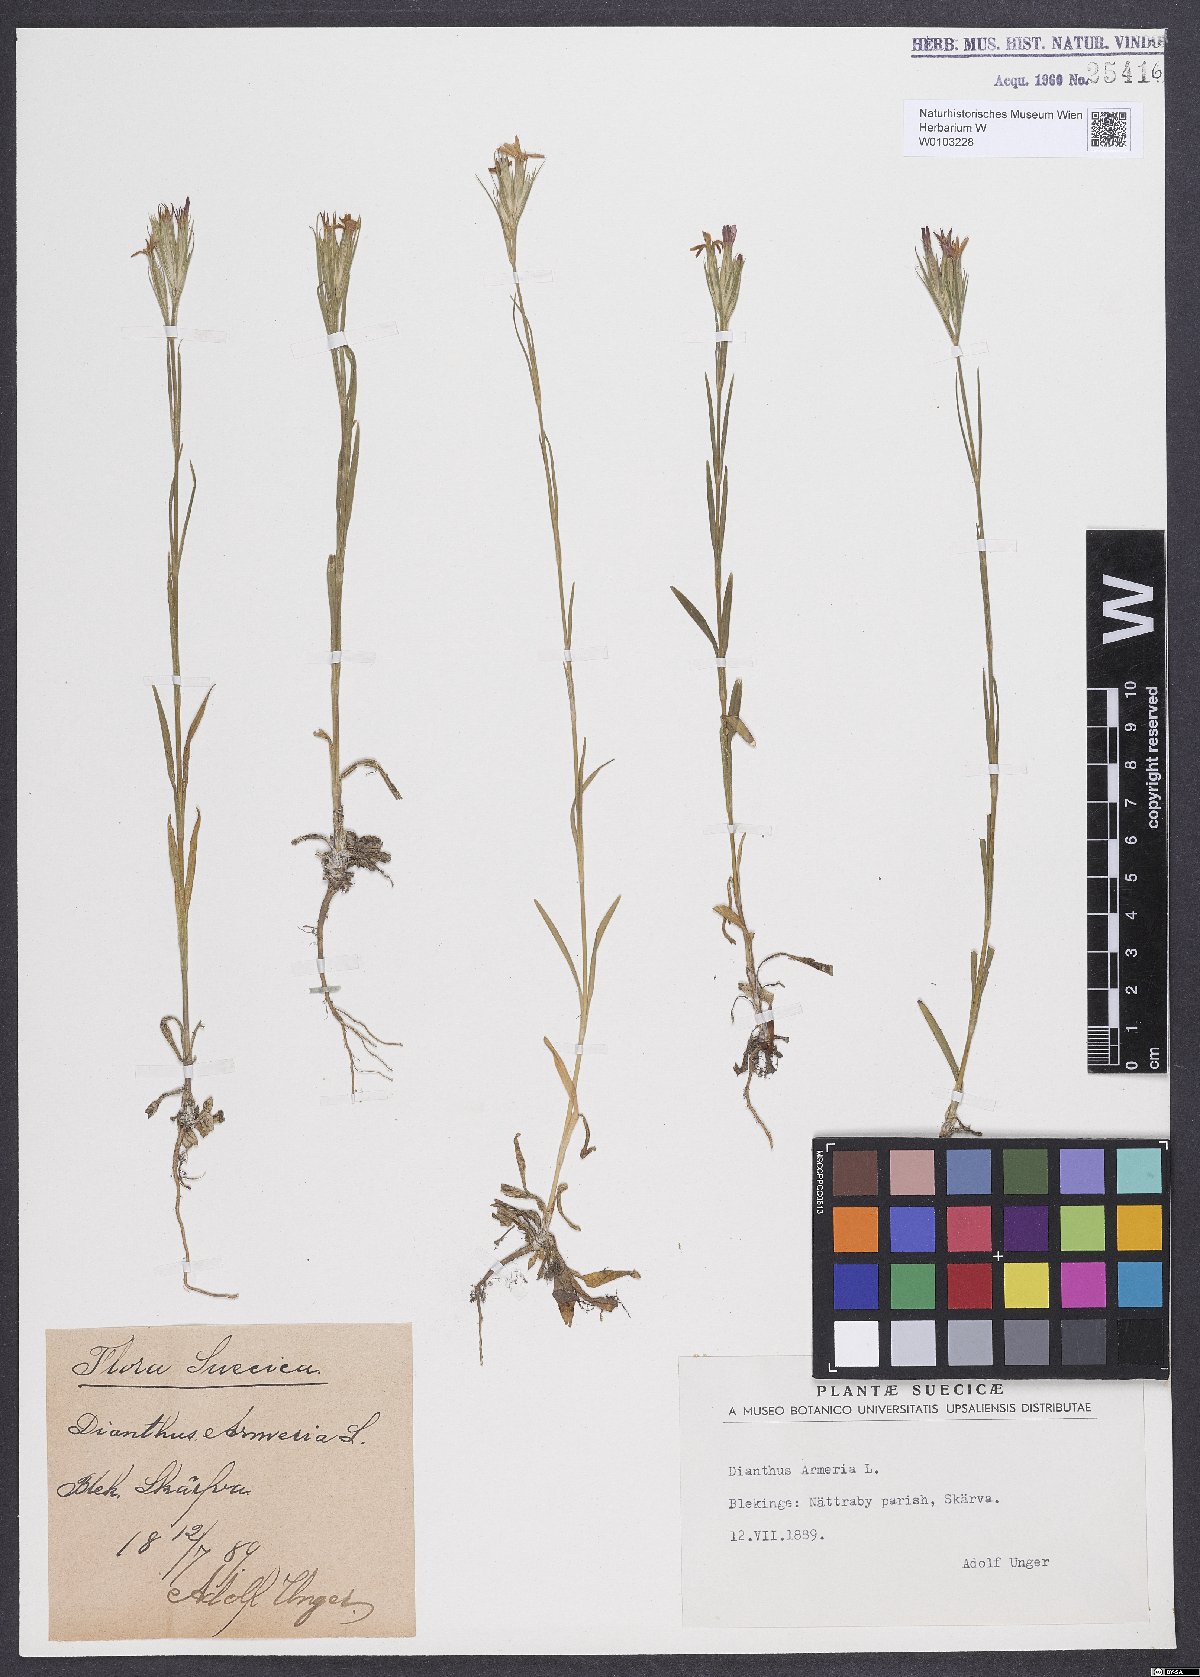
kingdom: Plantae
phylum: Tracheophyta
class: Magnoliopsida
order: Caryophyllales
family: Caryophyllaceae
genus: Dianthus
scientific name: Dianthus armeria
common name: Deptford pink
